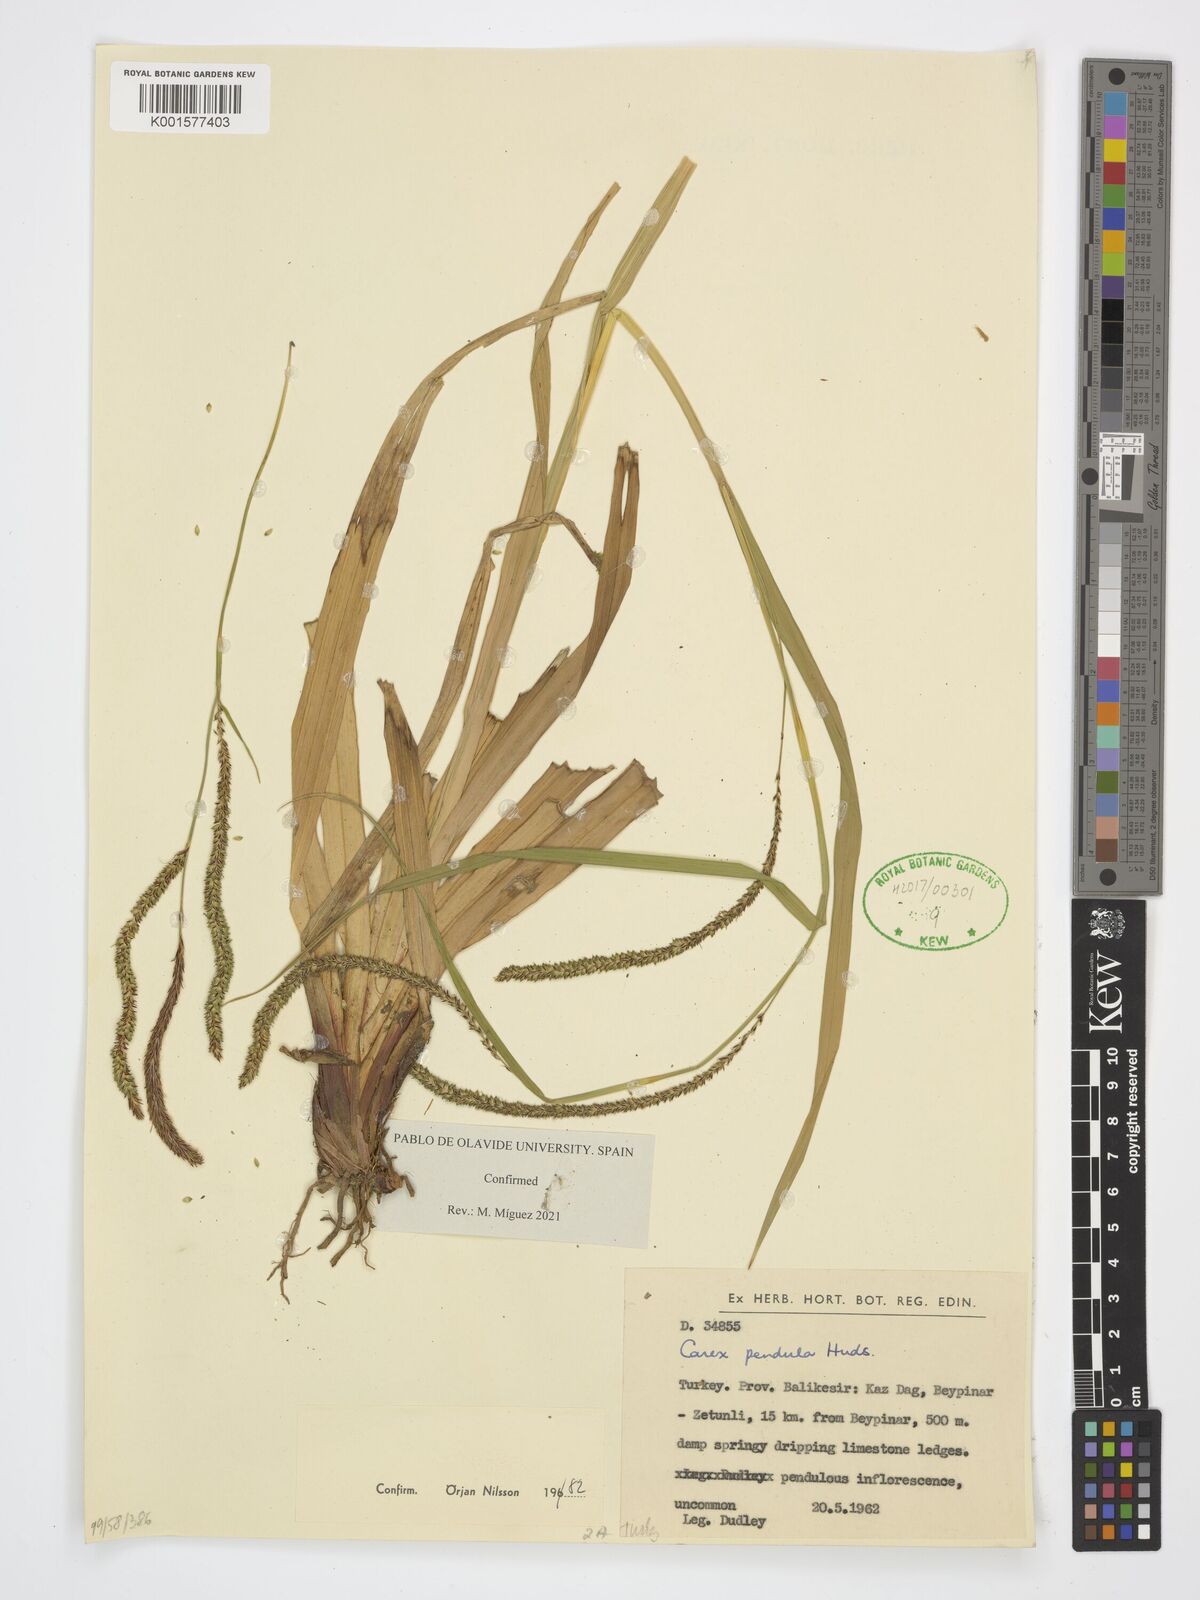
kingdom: Plantae
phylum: Tracheophyta
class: Liliopsida
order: Poales
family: Cyperaceae
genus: Carex
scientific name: Carex pendula
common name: Pendulous sedge
